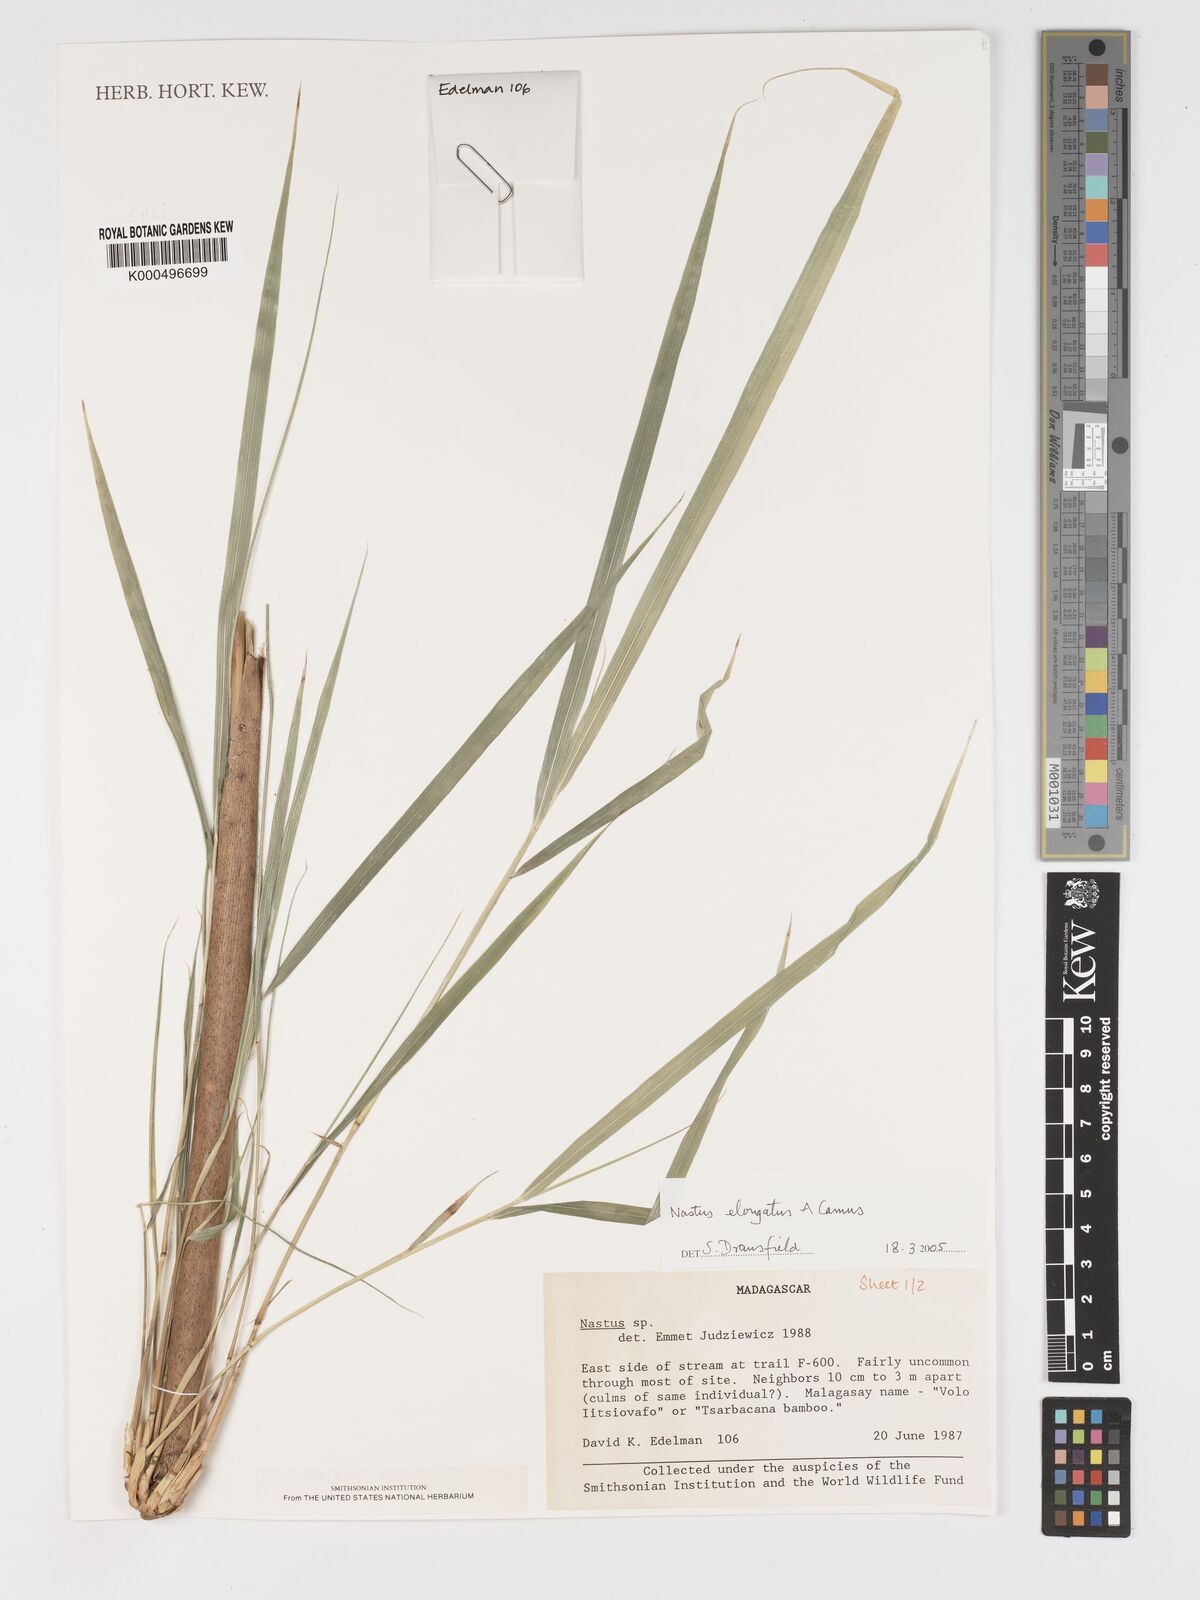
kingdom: Plantae
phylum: Tracheophyta
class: Liliopsida
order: Poales
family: Poaceae
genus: Nastus
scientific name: Nastus elongatus
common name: Spider bamboo
